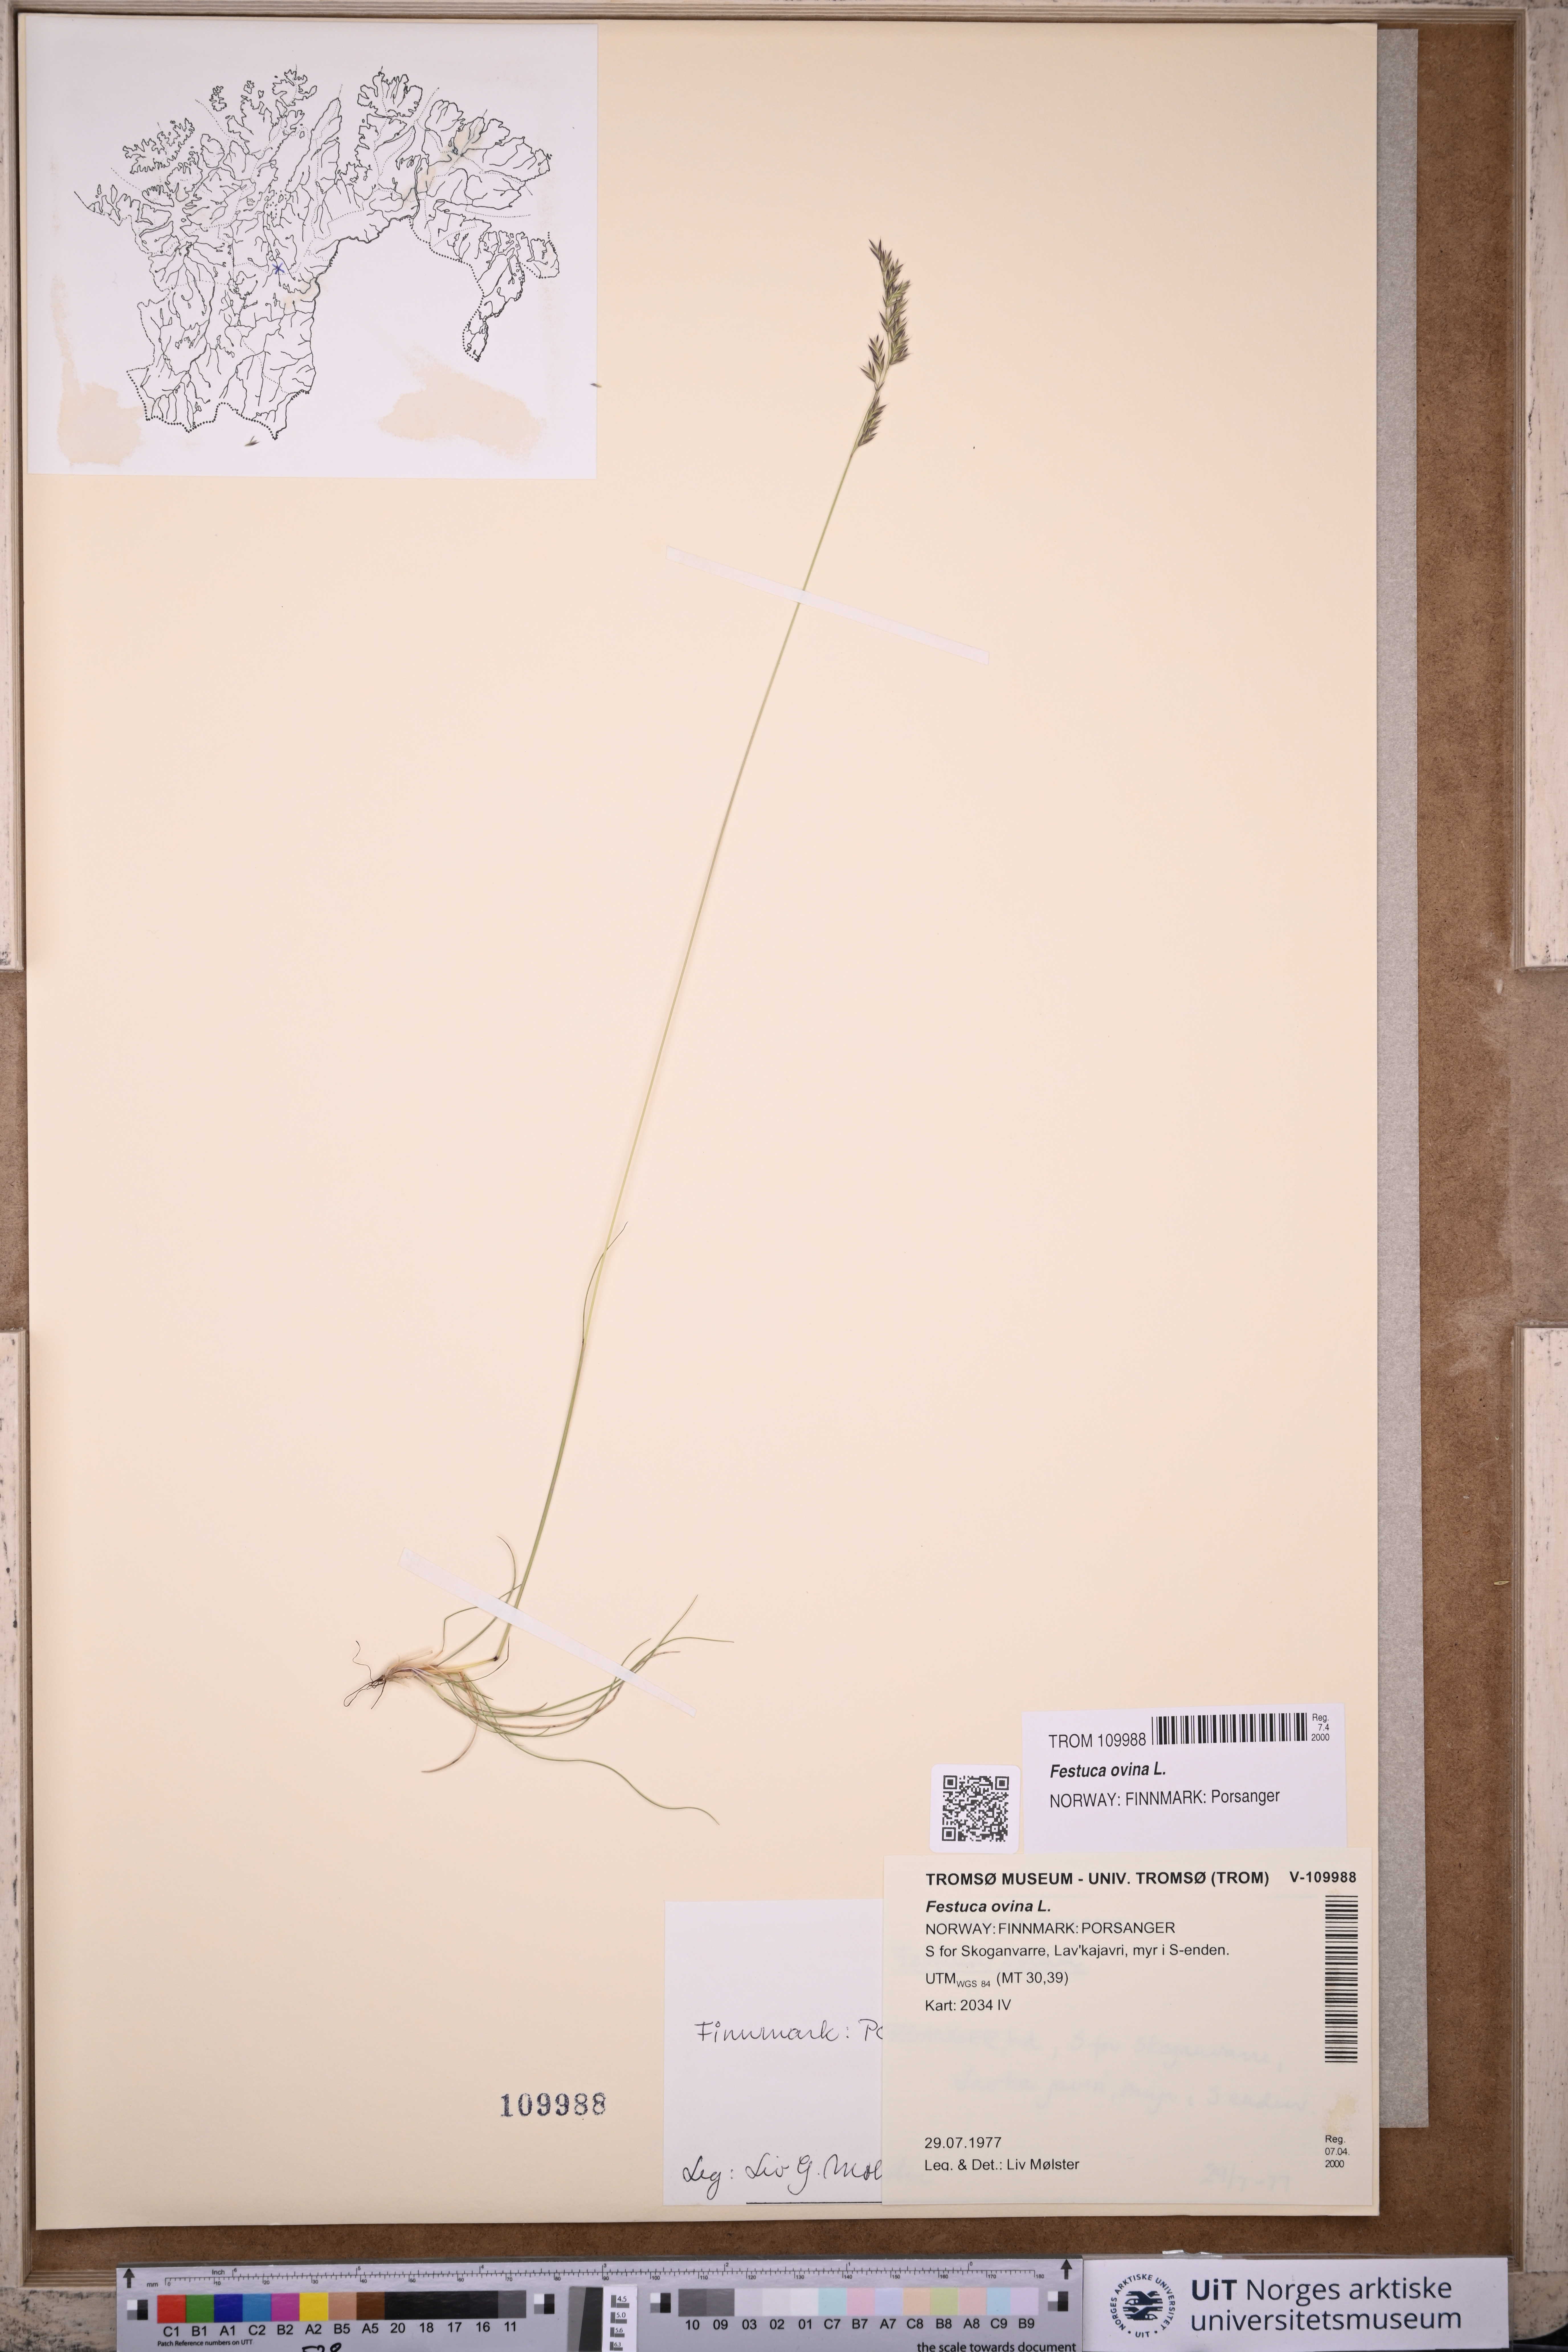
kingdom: Plantae
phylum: Tracheophyta
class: Liliopsida
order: Poales
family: Poaceae
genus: Festuca
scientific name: Festuca ovina
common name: Sheep fescue
